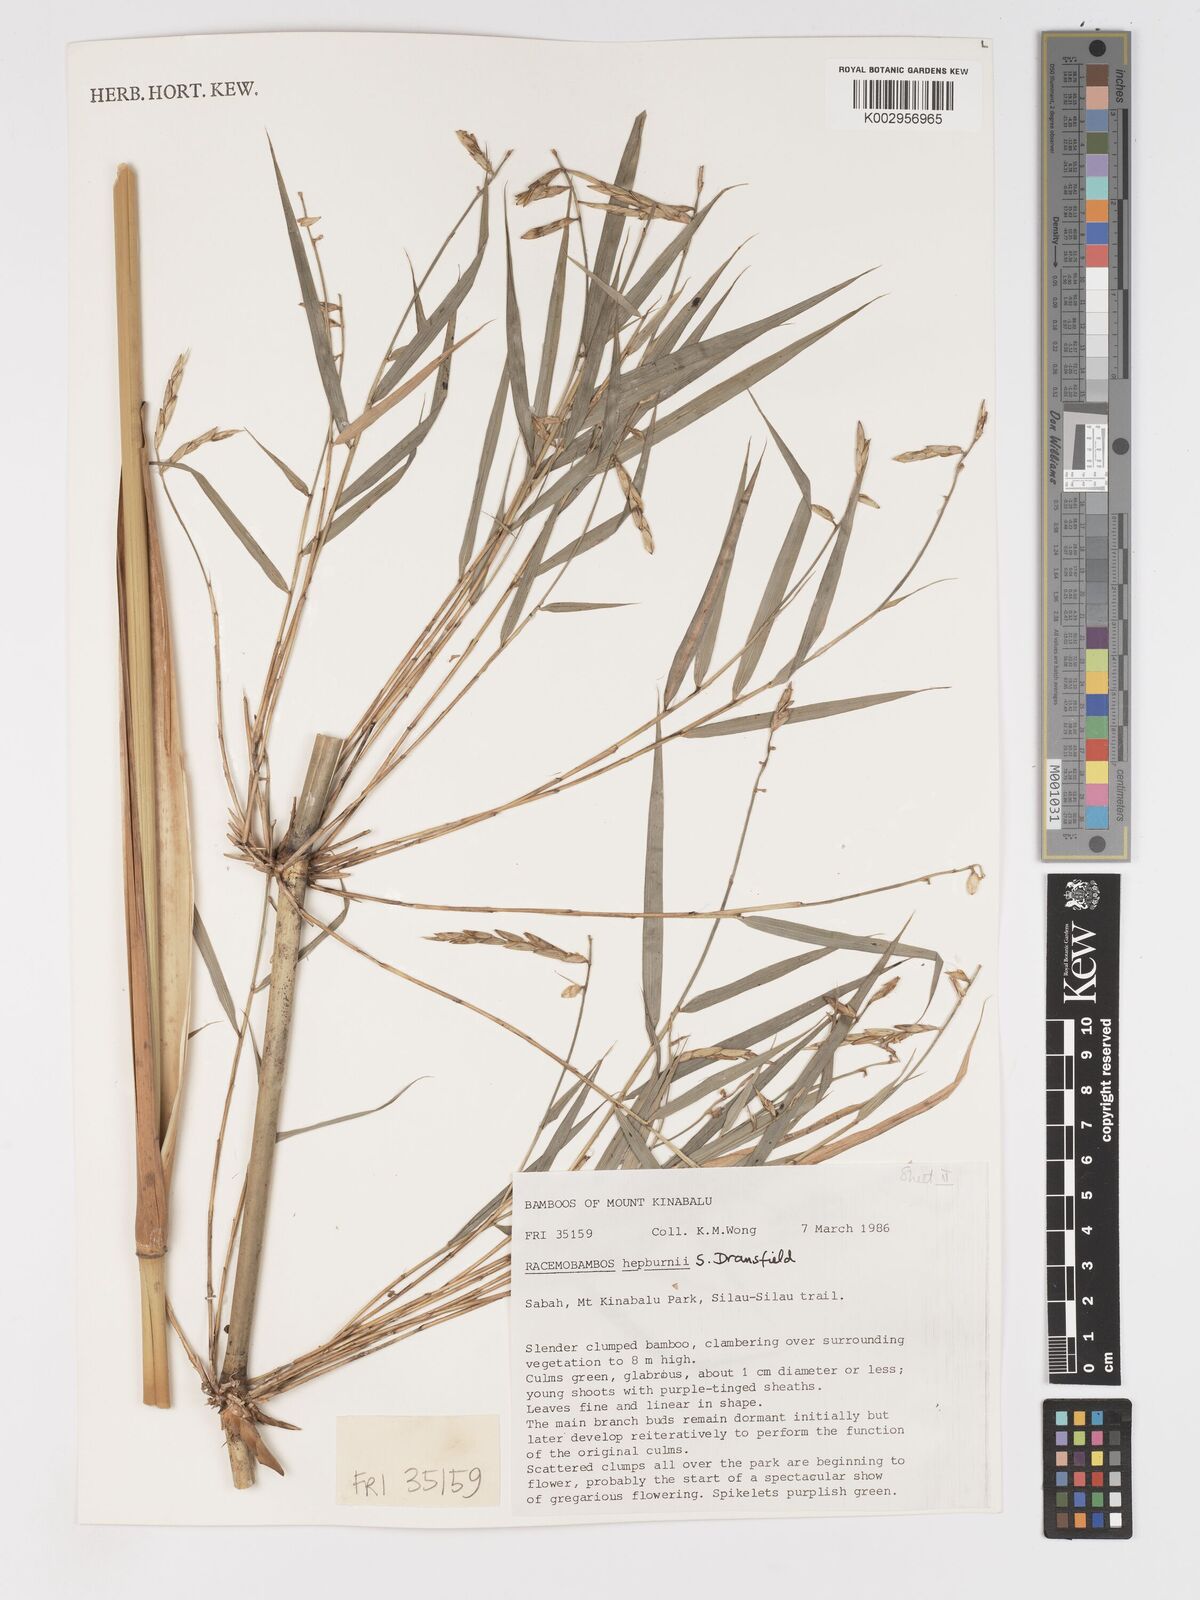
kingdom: Plantae
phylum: Tracheophyta
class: Liliopsida
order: Poales
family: Poaceae
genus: Racemobambos
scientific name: Racemobambos hepburnii
